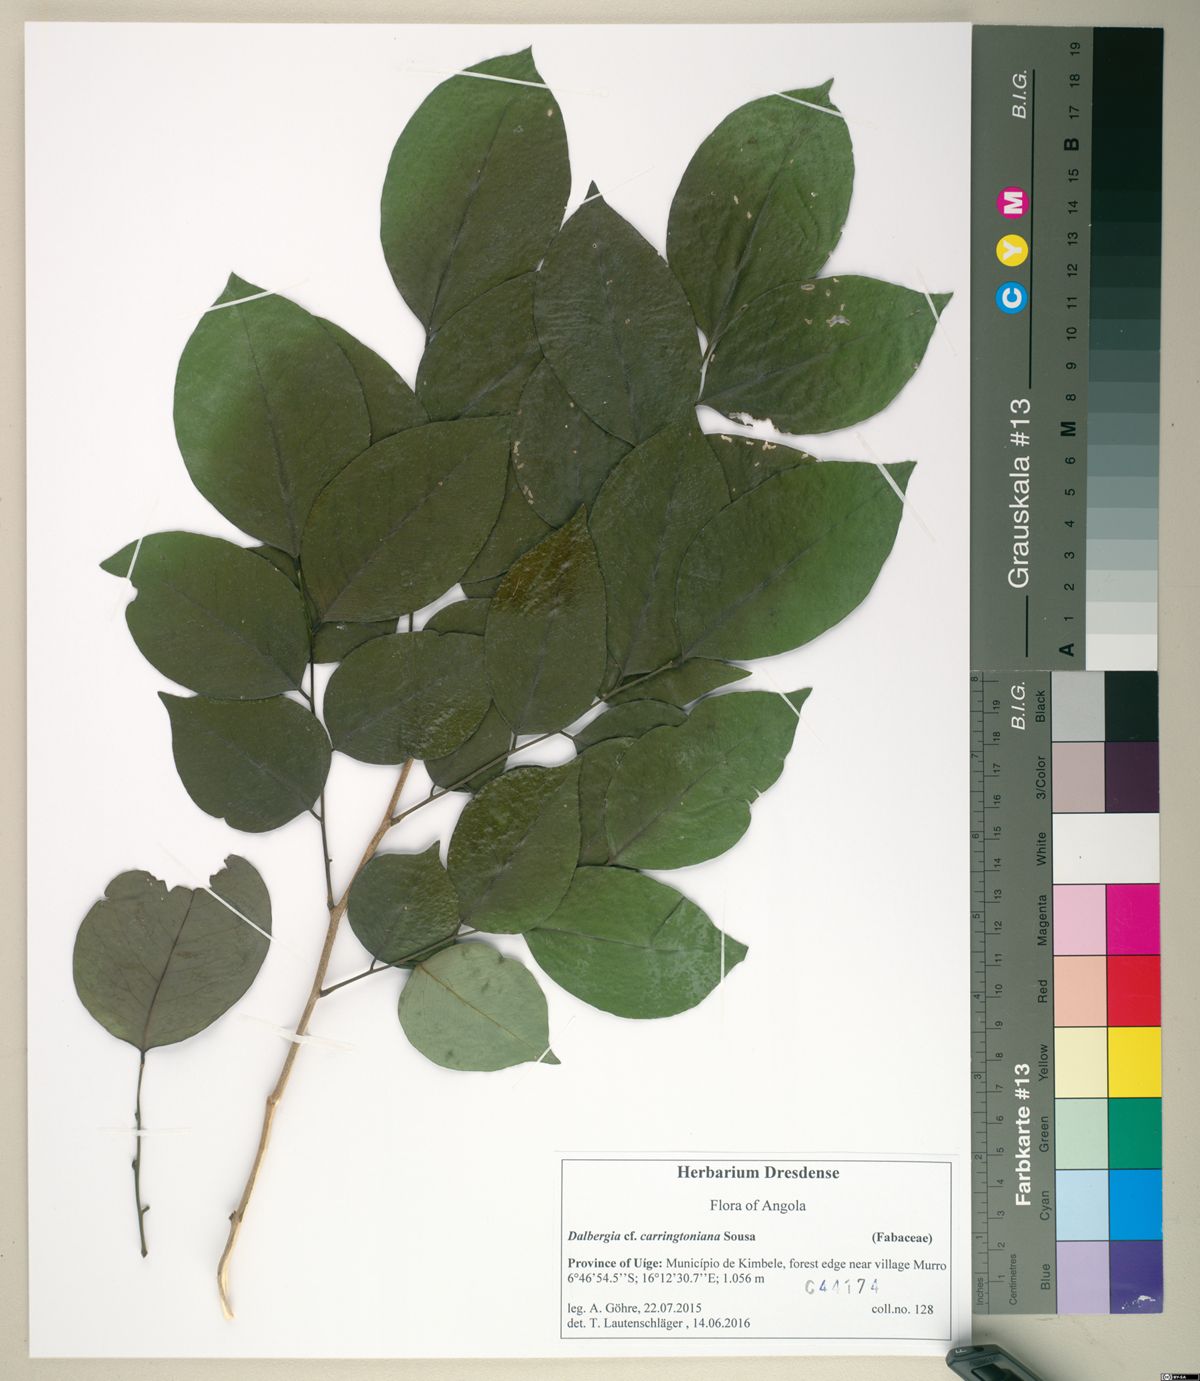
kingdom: Plantae
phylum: Tracheophyta
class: Magnoliopsida
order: Fabales
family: Fabaceae
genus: Dalbergia
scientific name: Dalbergia carringtoniana
